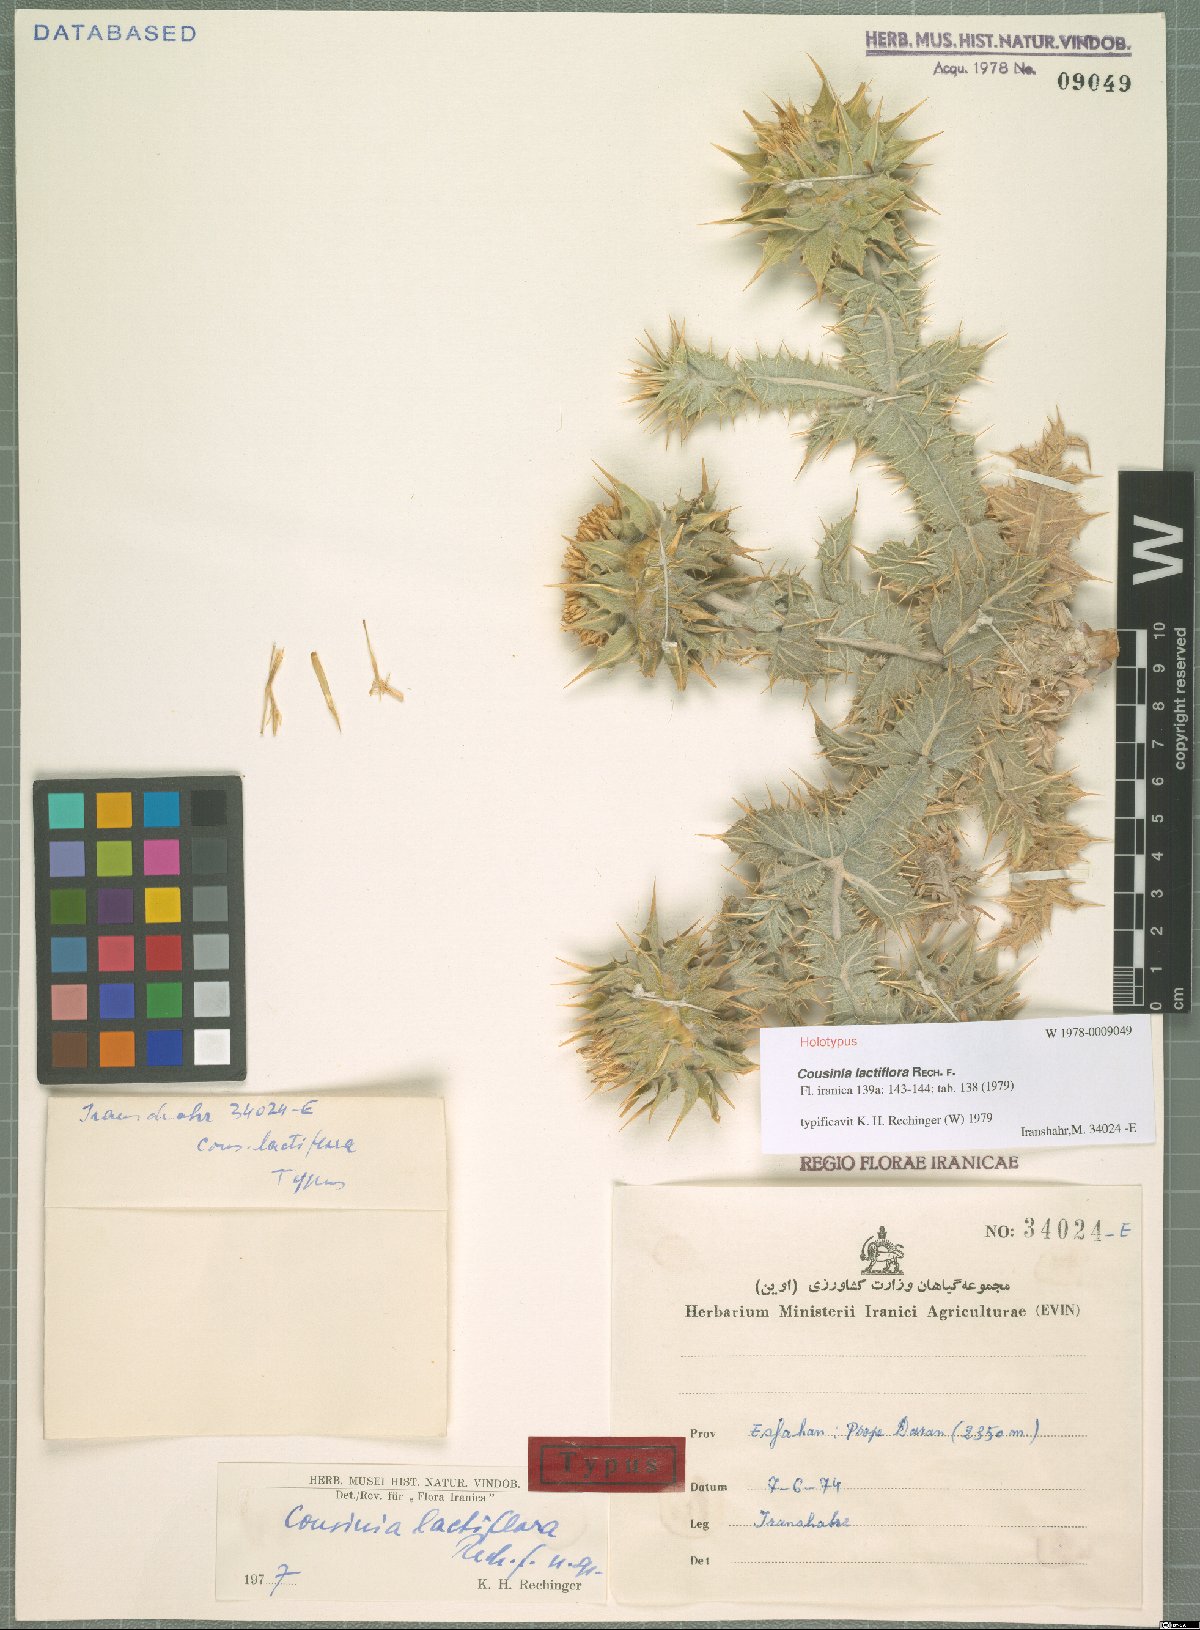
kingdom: Plantae
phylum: Tracheophyta
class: Magnoliopsida
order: Asterales
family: Asteraceae
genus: Cousinia
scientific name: Cousinia lactiflora
